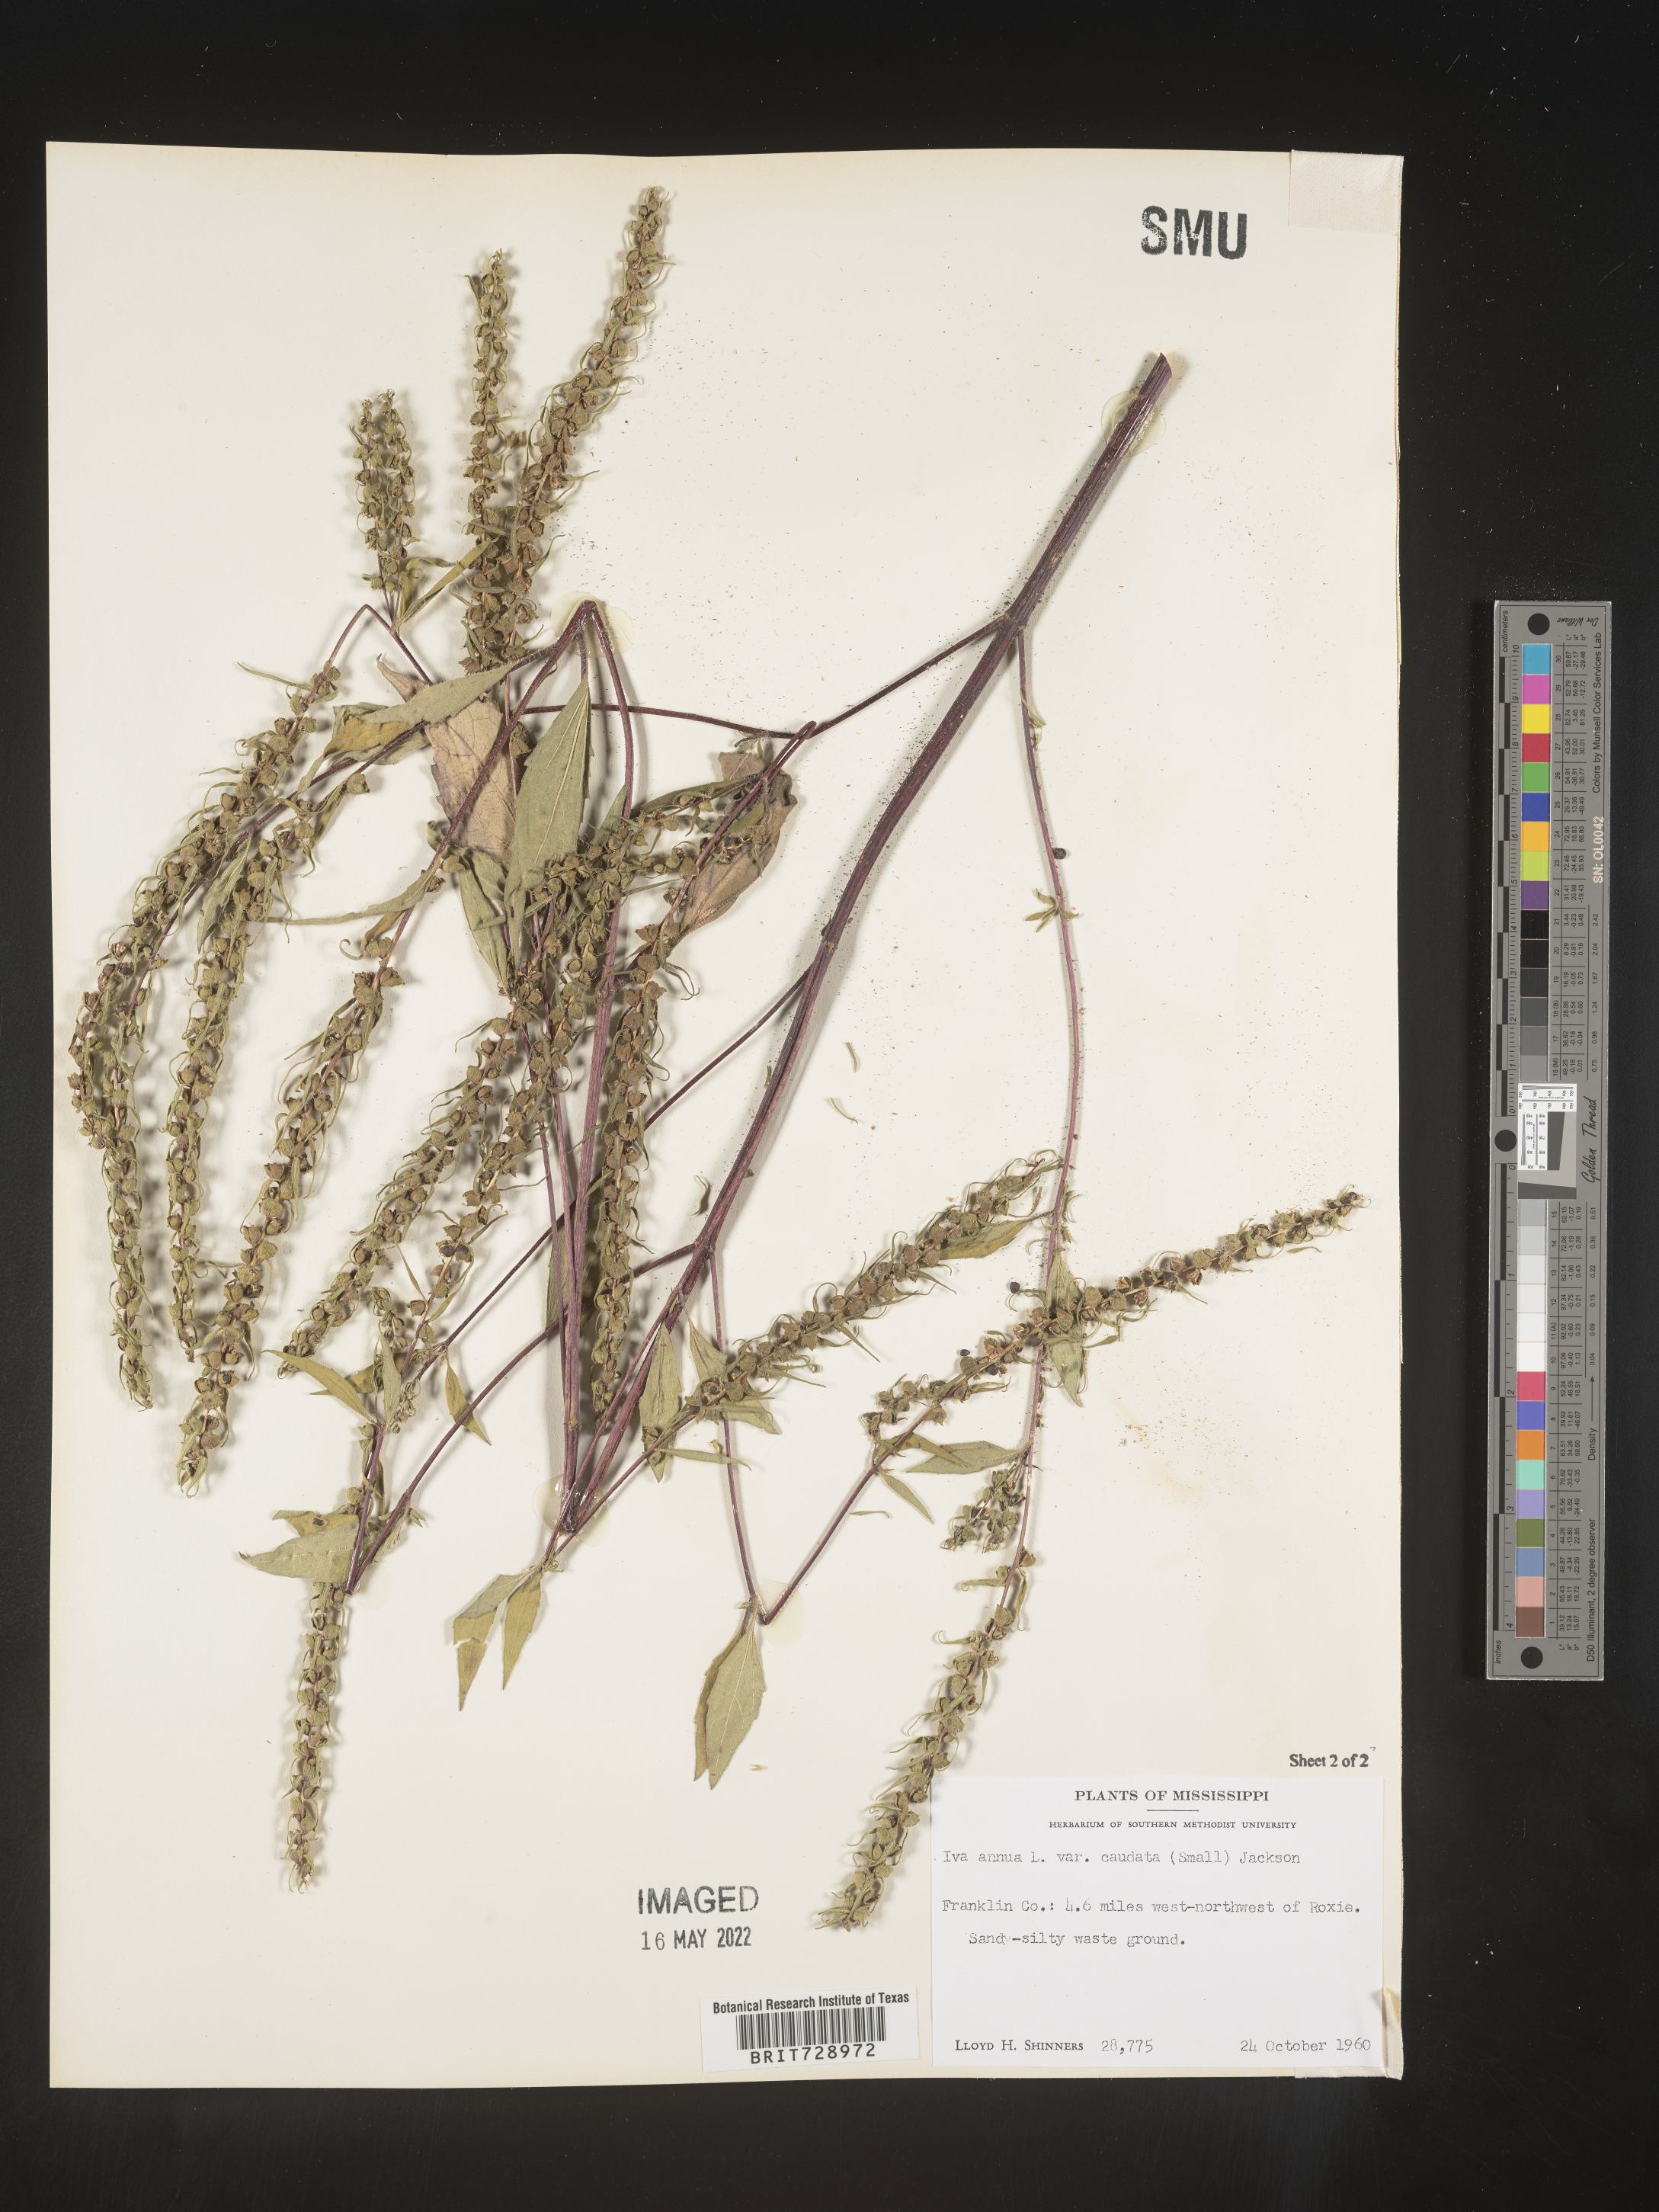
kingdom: Plantae
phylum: Tracheophyta
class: Magnoliopsida
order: Asterales
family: Asteraceae
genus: Iva
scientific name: Iva annua
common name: Marsh-elder
